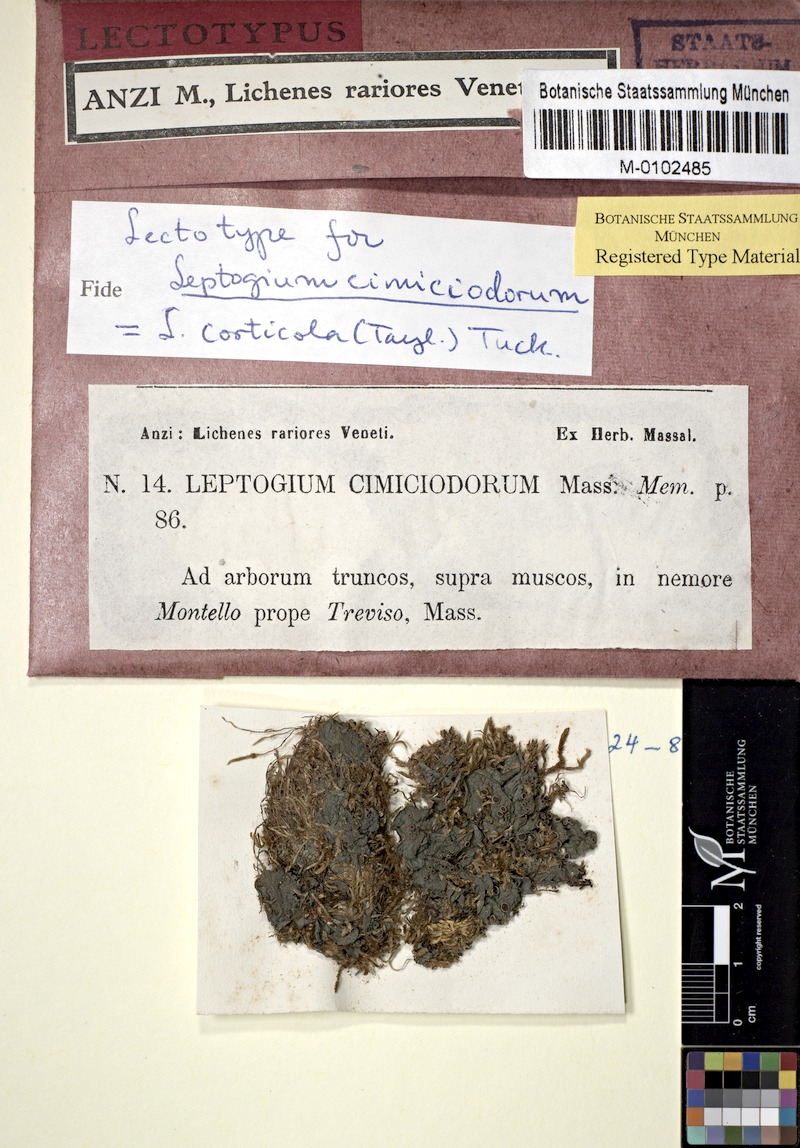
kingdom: Fungi
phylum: Ascomycota
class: Lecanoromycetes
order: Peltigerales
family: Collemataceae
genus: Leptogium
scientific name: Leptogium corticola
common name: Blistered jellyskin lichen
